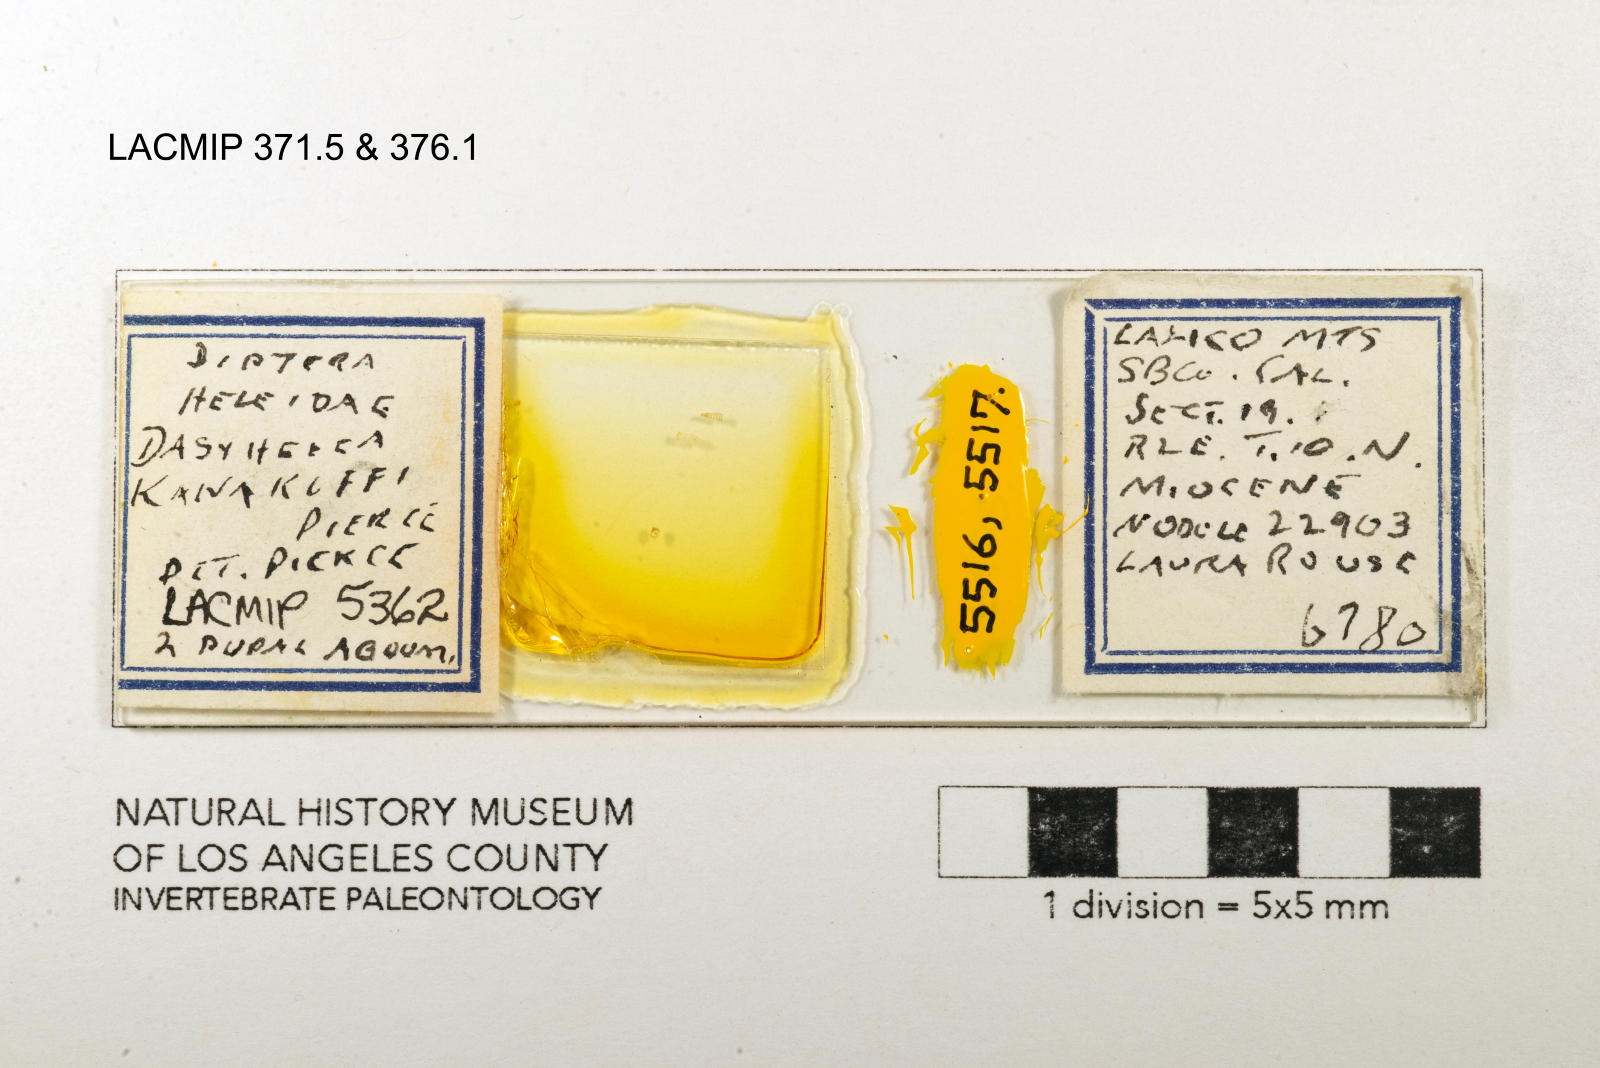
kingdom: Animalia
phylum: Arthropoda
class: Insecta
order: Diptera
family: Ceratopogonidae
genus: Dasyhelea
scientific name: Dasyhelea kanakoffi
